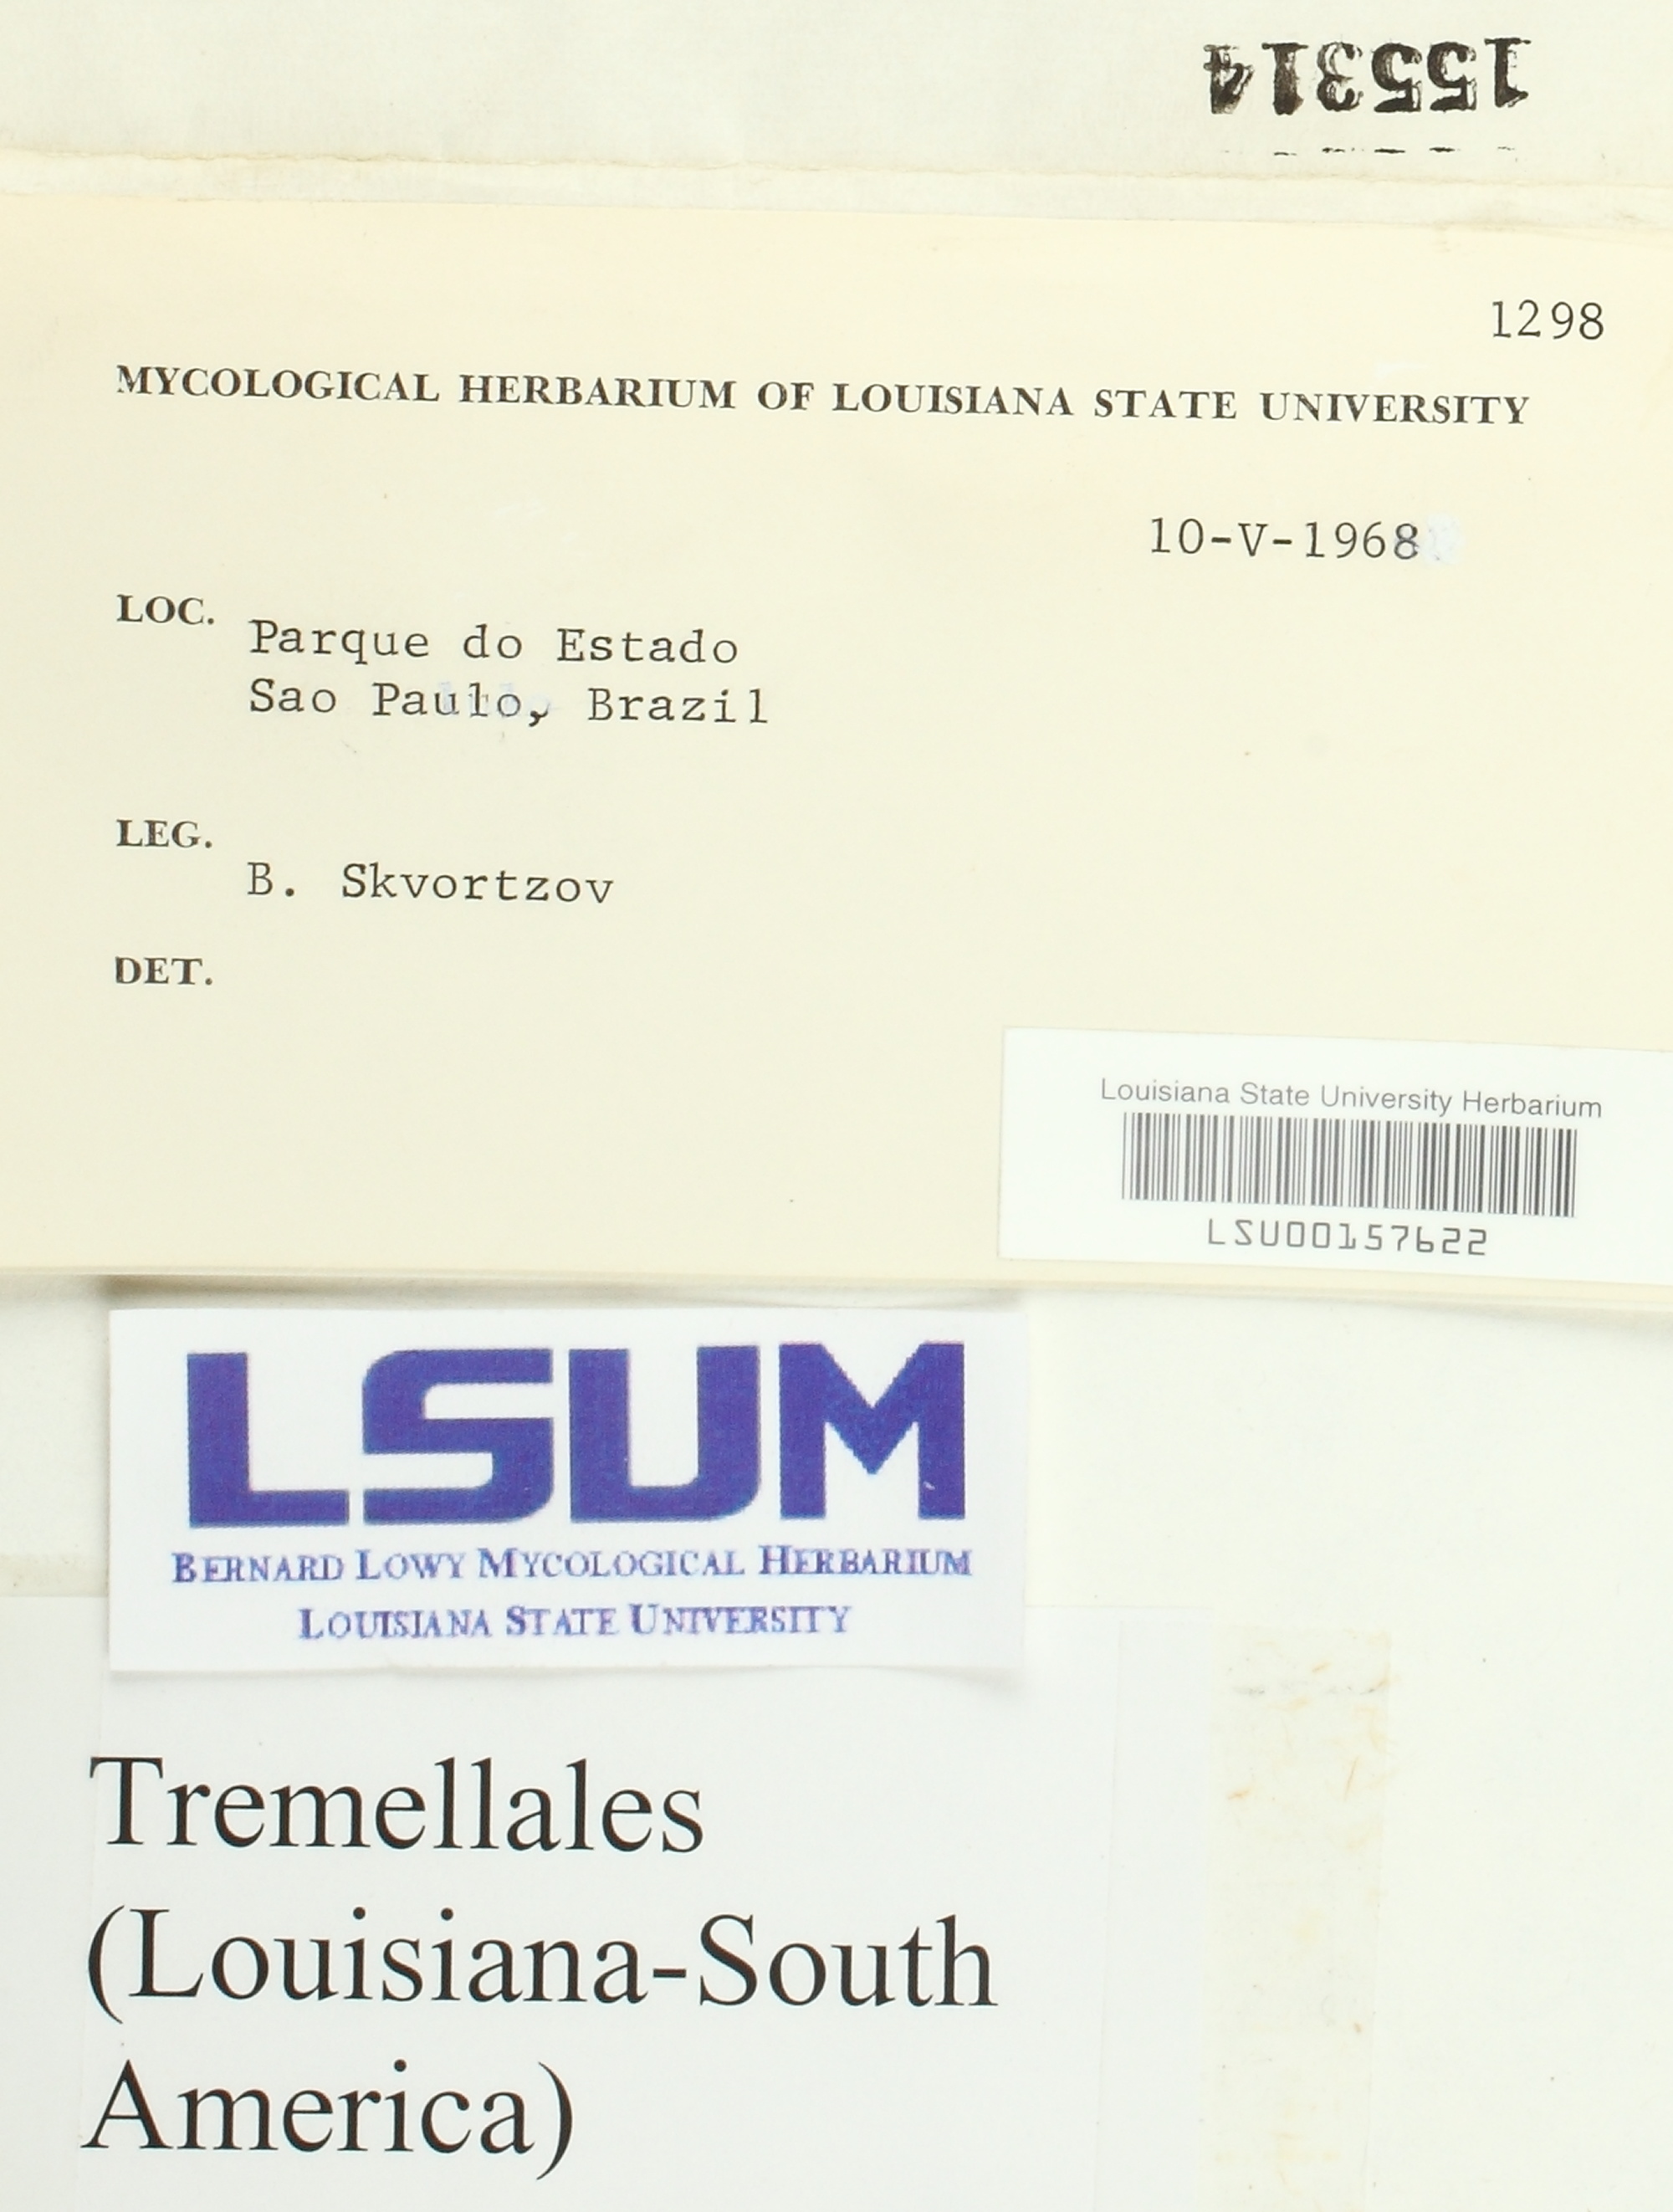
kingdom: Fungi
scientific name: Fungi
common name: Fungi
